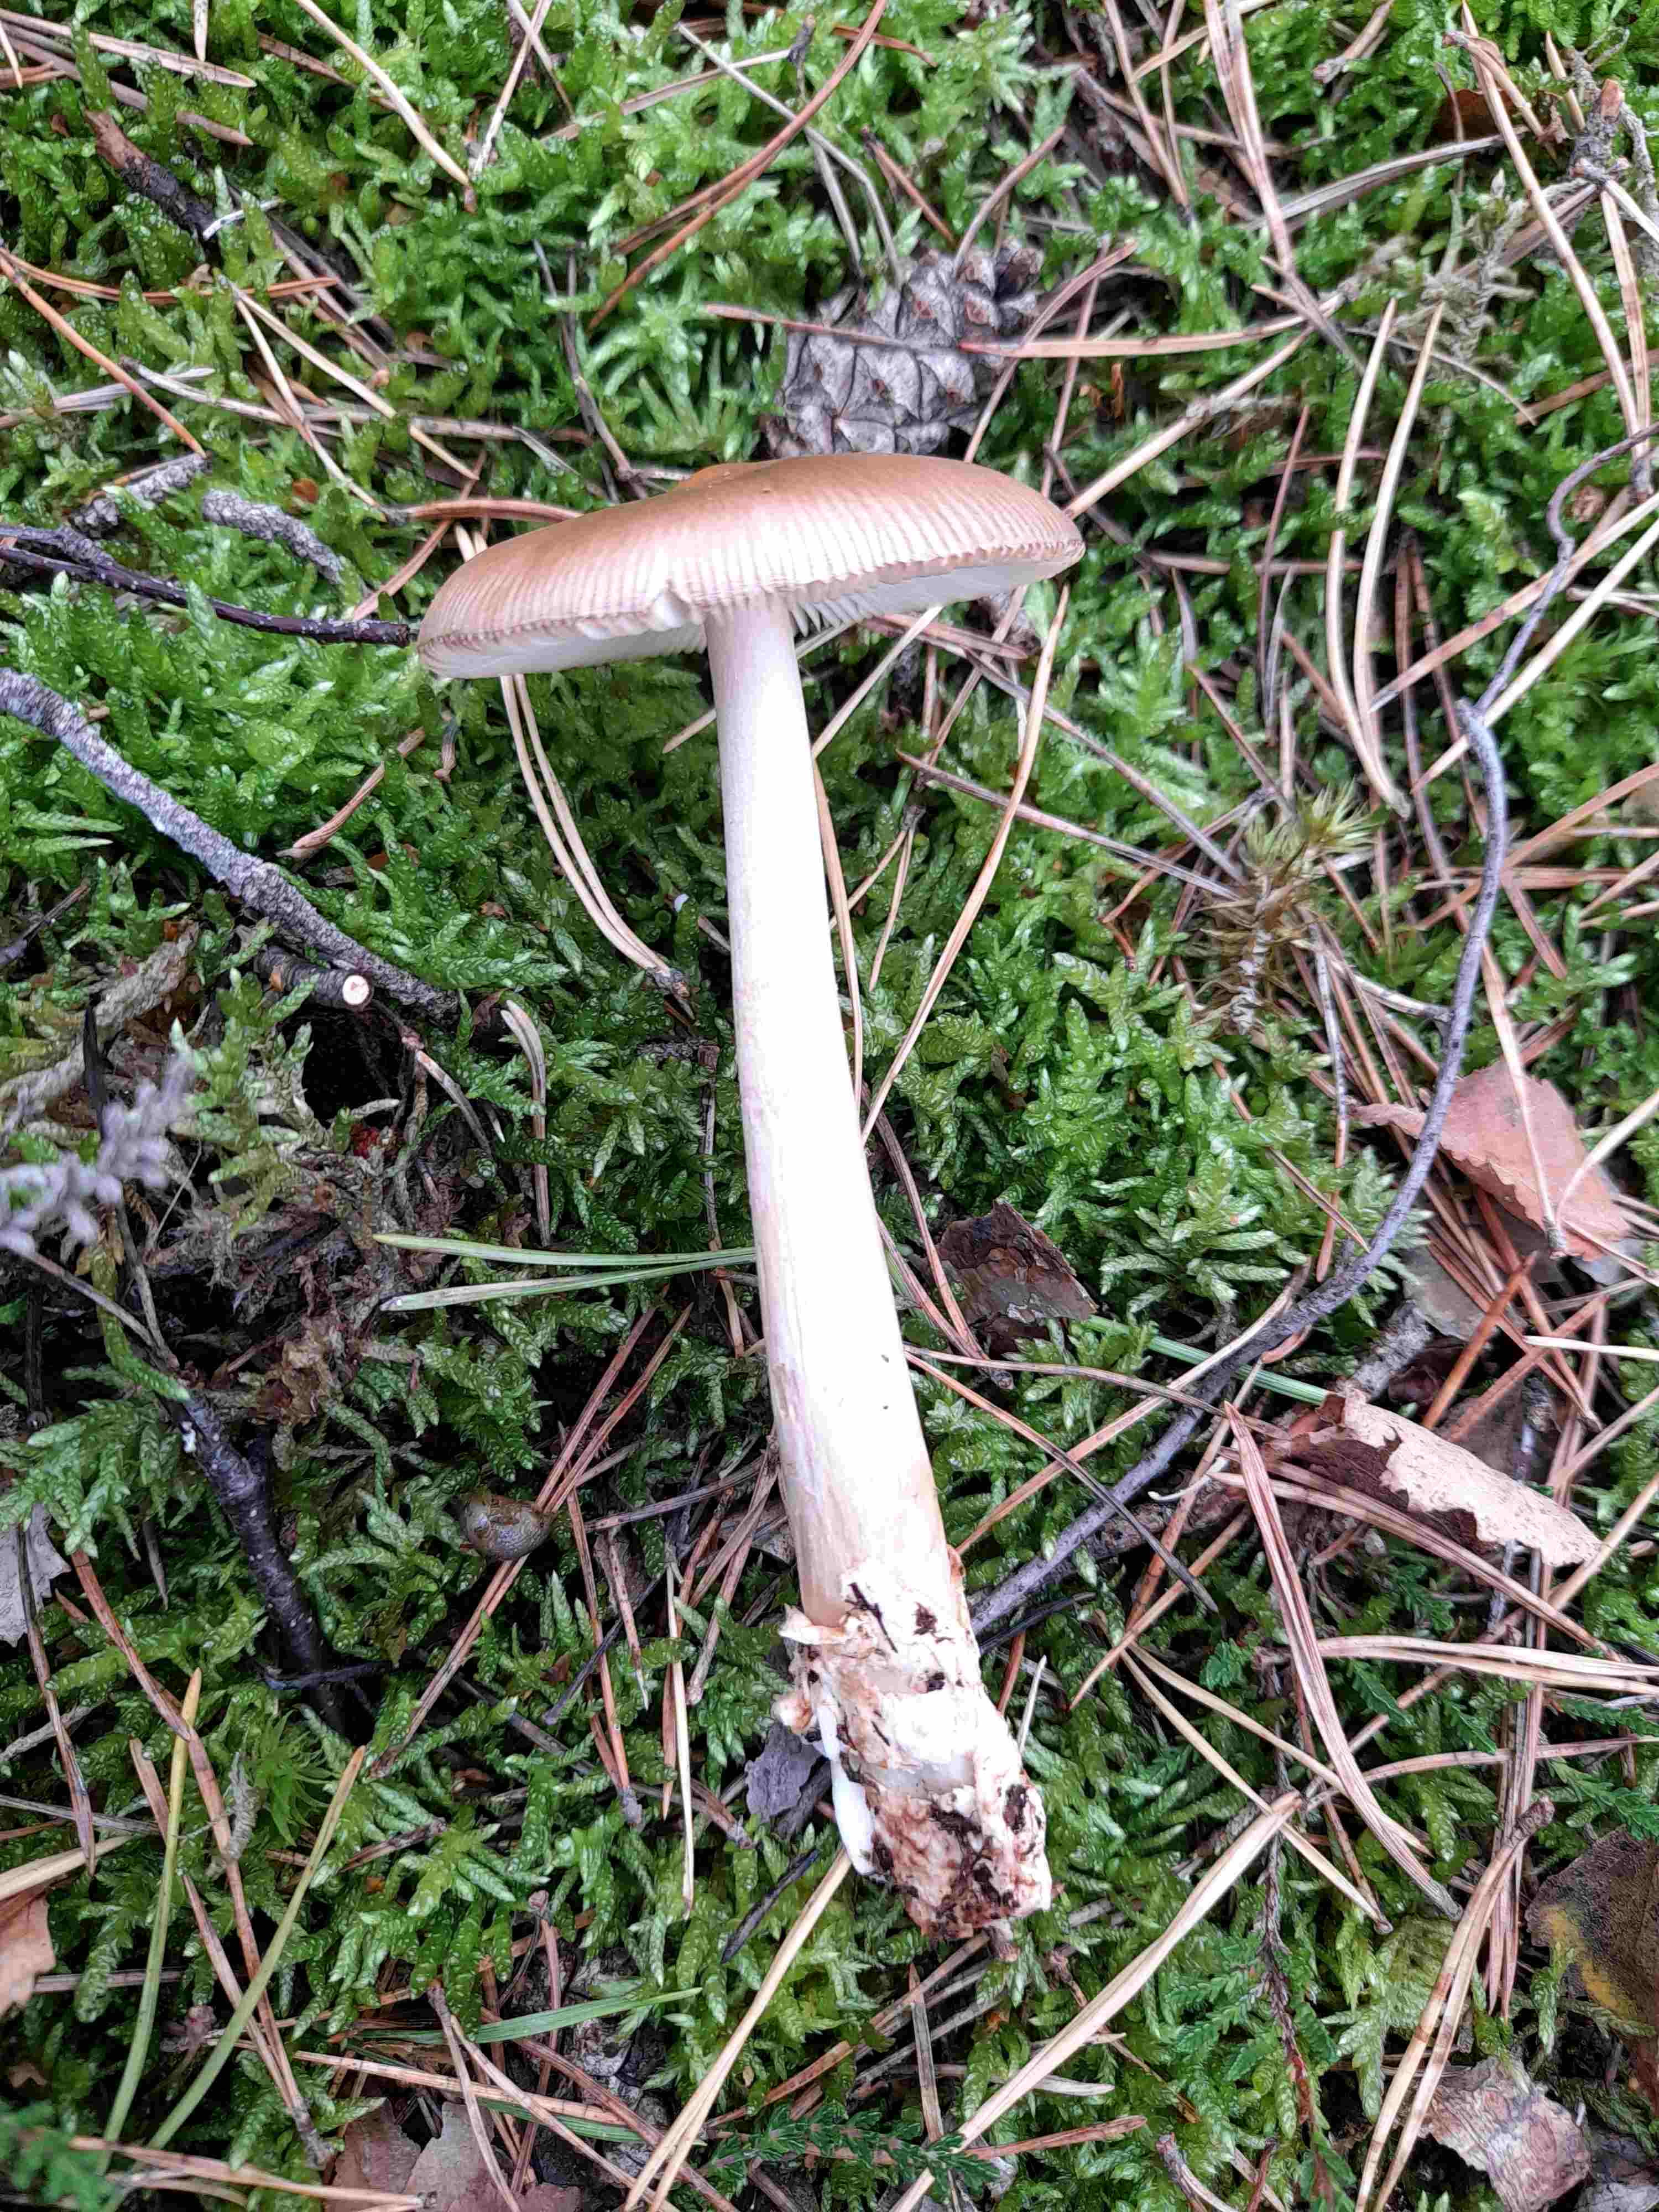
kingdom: Fungi
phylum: Basidiomycota
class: Agaricomycetes
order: Agaricales
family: Amanitaceae
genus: Amanita
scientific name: Amanita fulva
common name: brun kam-fluesvamp
